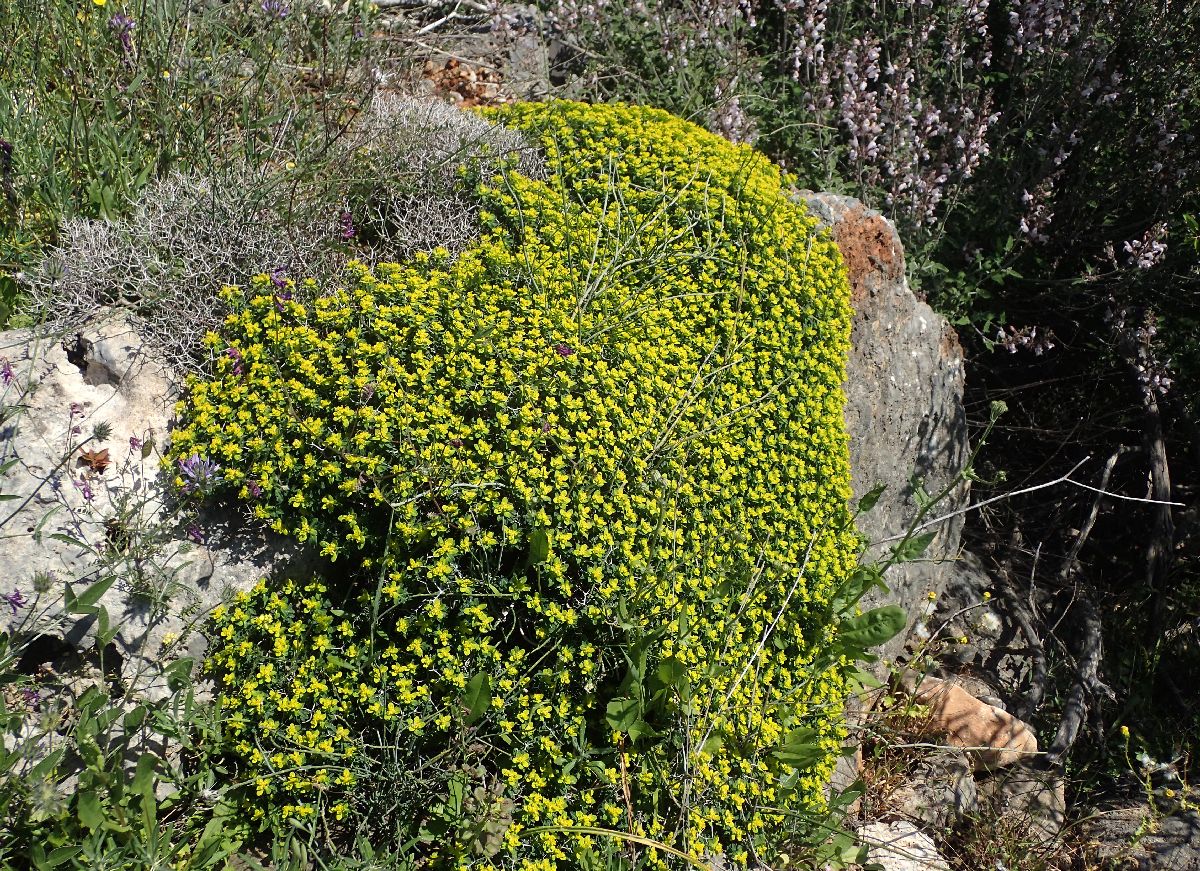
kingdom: Plantae
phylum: Tracheophyta
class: Magnoliopsida
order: Malpighiales
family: Euphorbiaceae
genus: Euphorbia
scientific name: Euphorbia acanthothamnos
